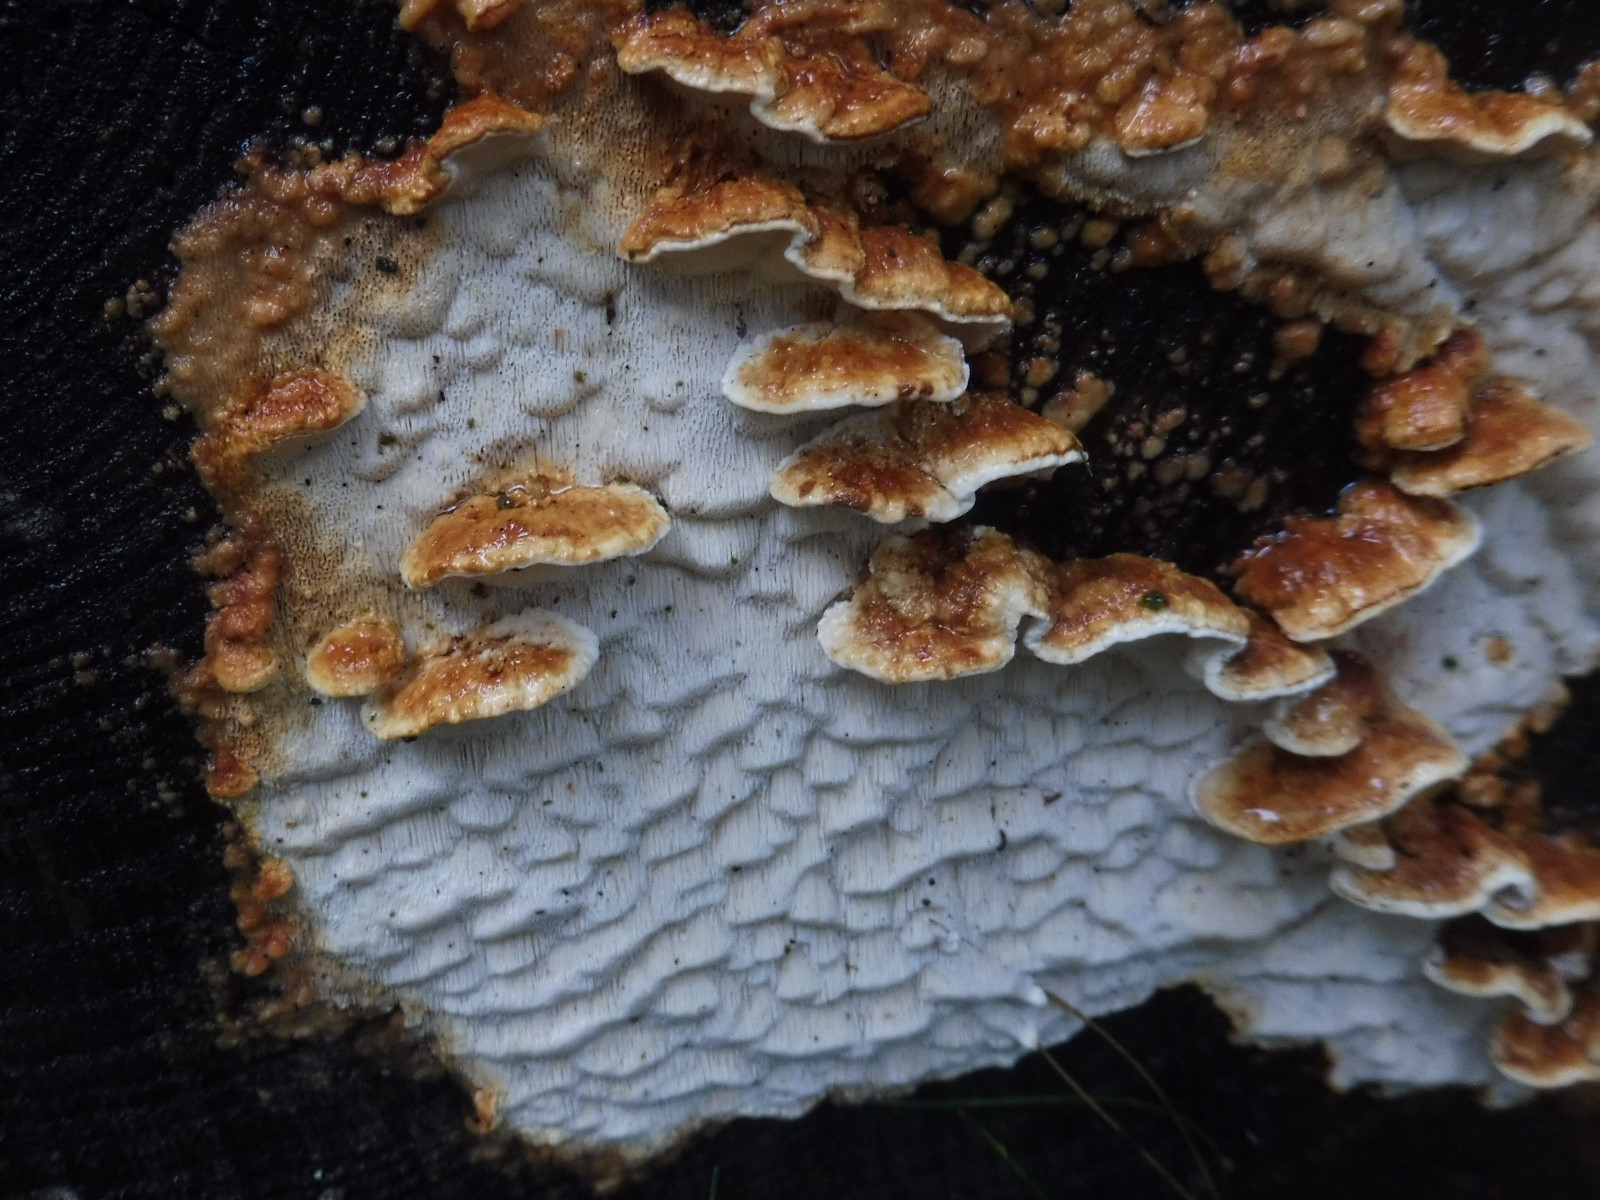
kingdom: Fungi
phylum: Basidiomycota
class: Agaricomycetes
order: Polyporales
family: Fomitopsidaceae
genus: Neoantrodia
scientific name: Neoantrodia serialis
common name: række-sejporesvamp
